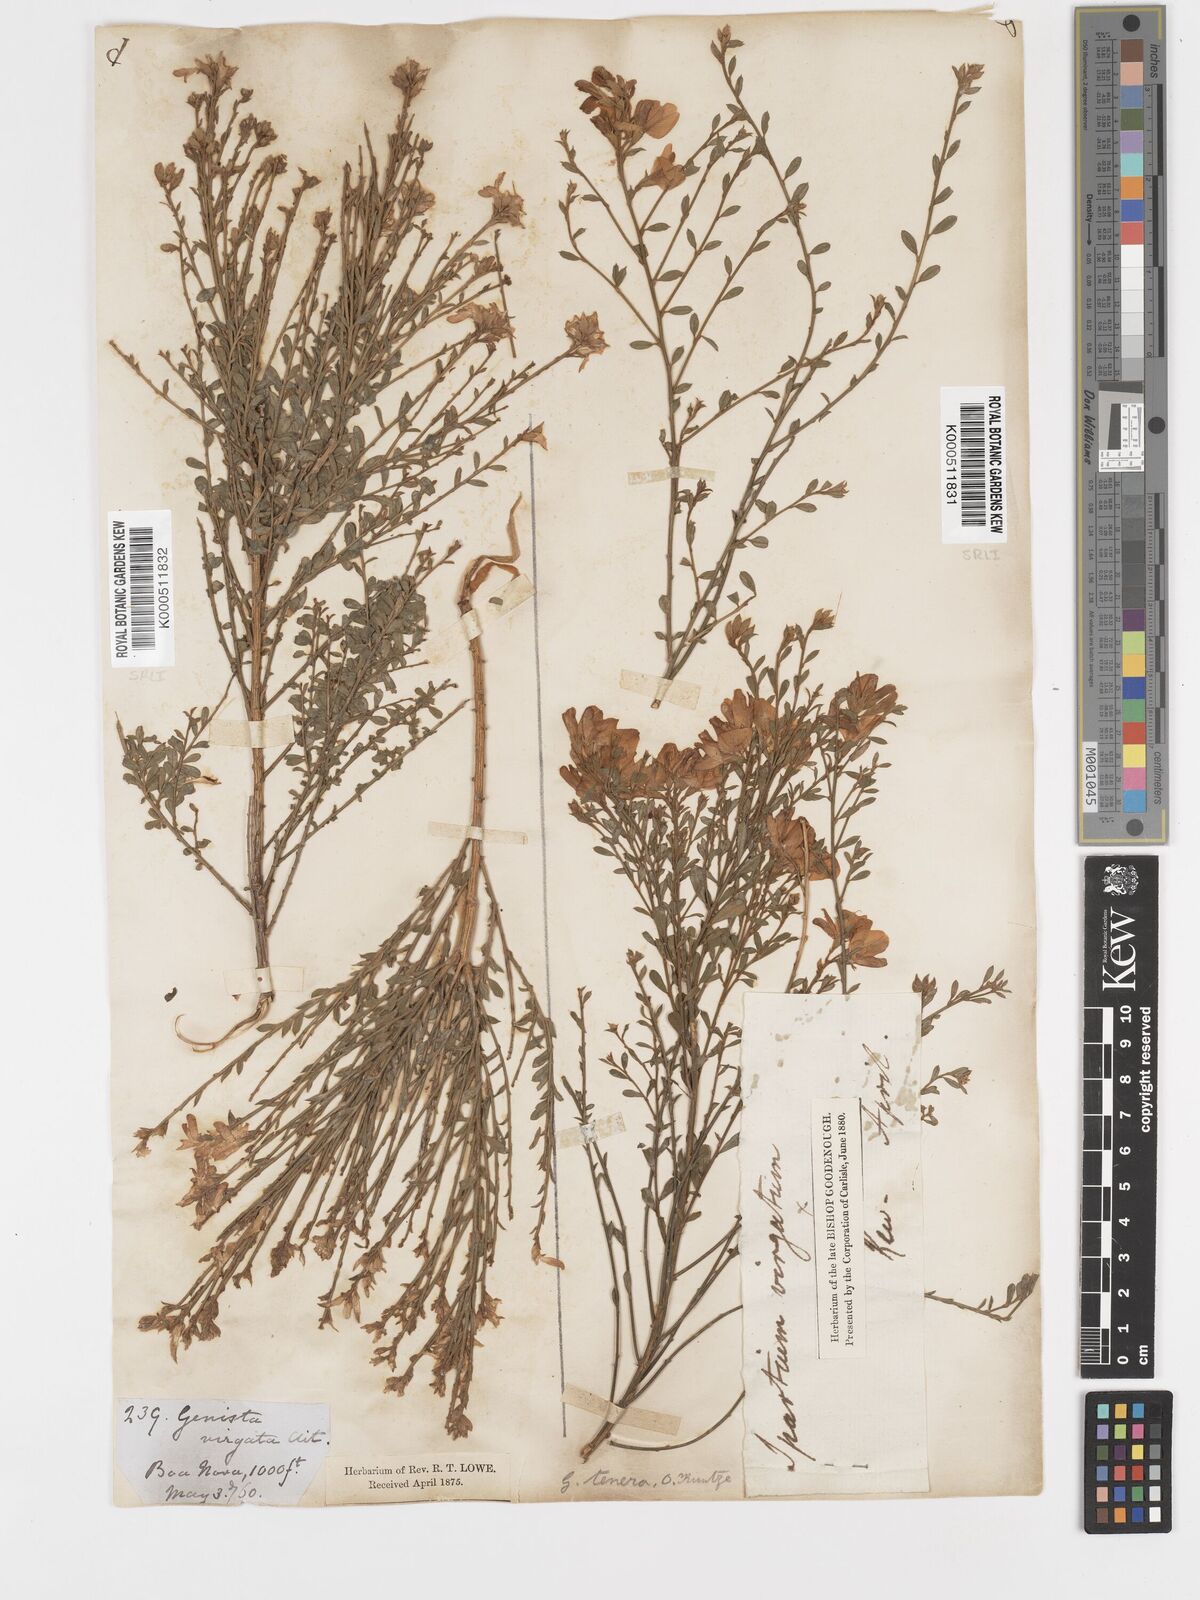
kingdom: Plantae
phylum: Tracheophyta
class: Magnoliopsida
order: Fabales
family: Fabaceae
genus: Genista
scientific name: Genista tenera
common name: Madeira broom
